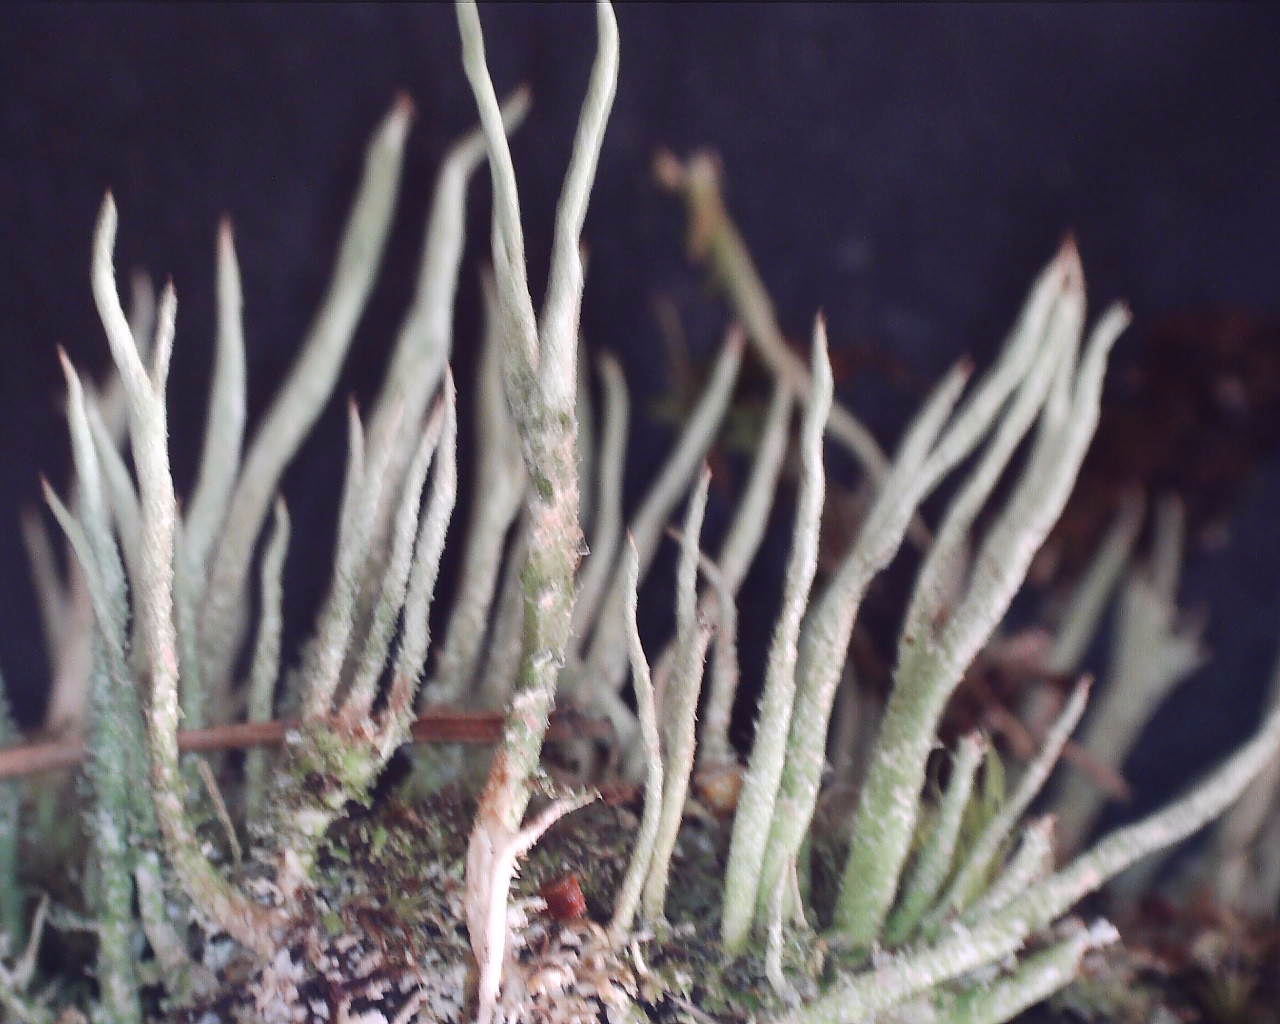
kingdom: Fungi
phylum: Ascomycota
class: Lecanoromycetes
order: Lecanorales
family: Cladoniaceae
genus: Cladonia
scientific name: Cladonia glauca
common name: grågrøn bægerlav
